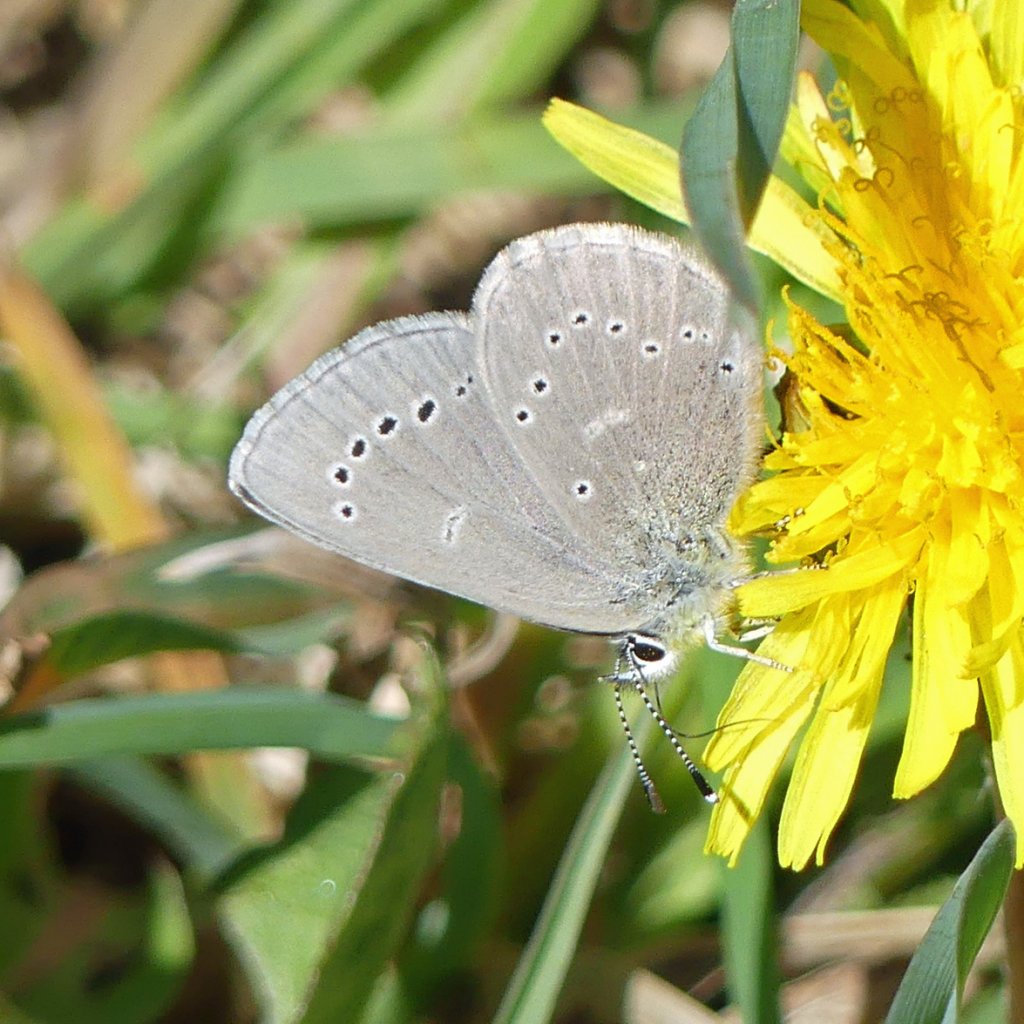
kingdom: Animalia
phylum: Arthropoda
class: Insecta
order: Lepidoptera
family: Lycaenidae
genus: Glaucopsyche
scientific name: Glaucopsyche lygdamus
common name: Silvery Blue
